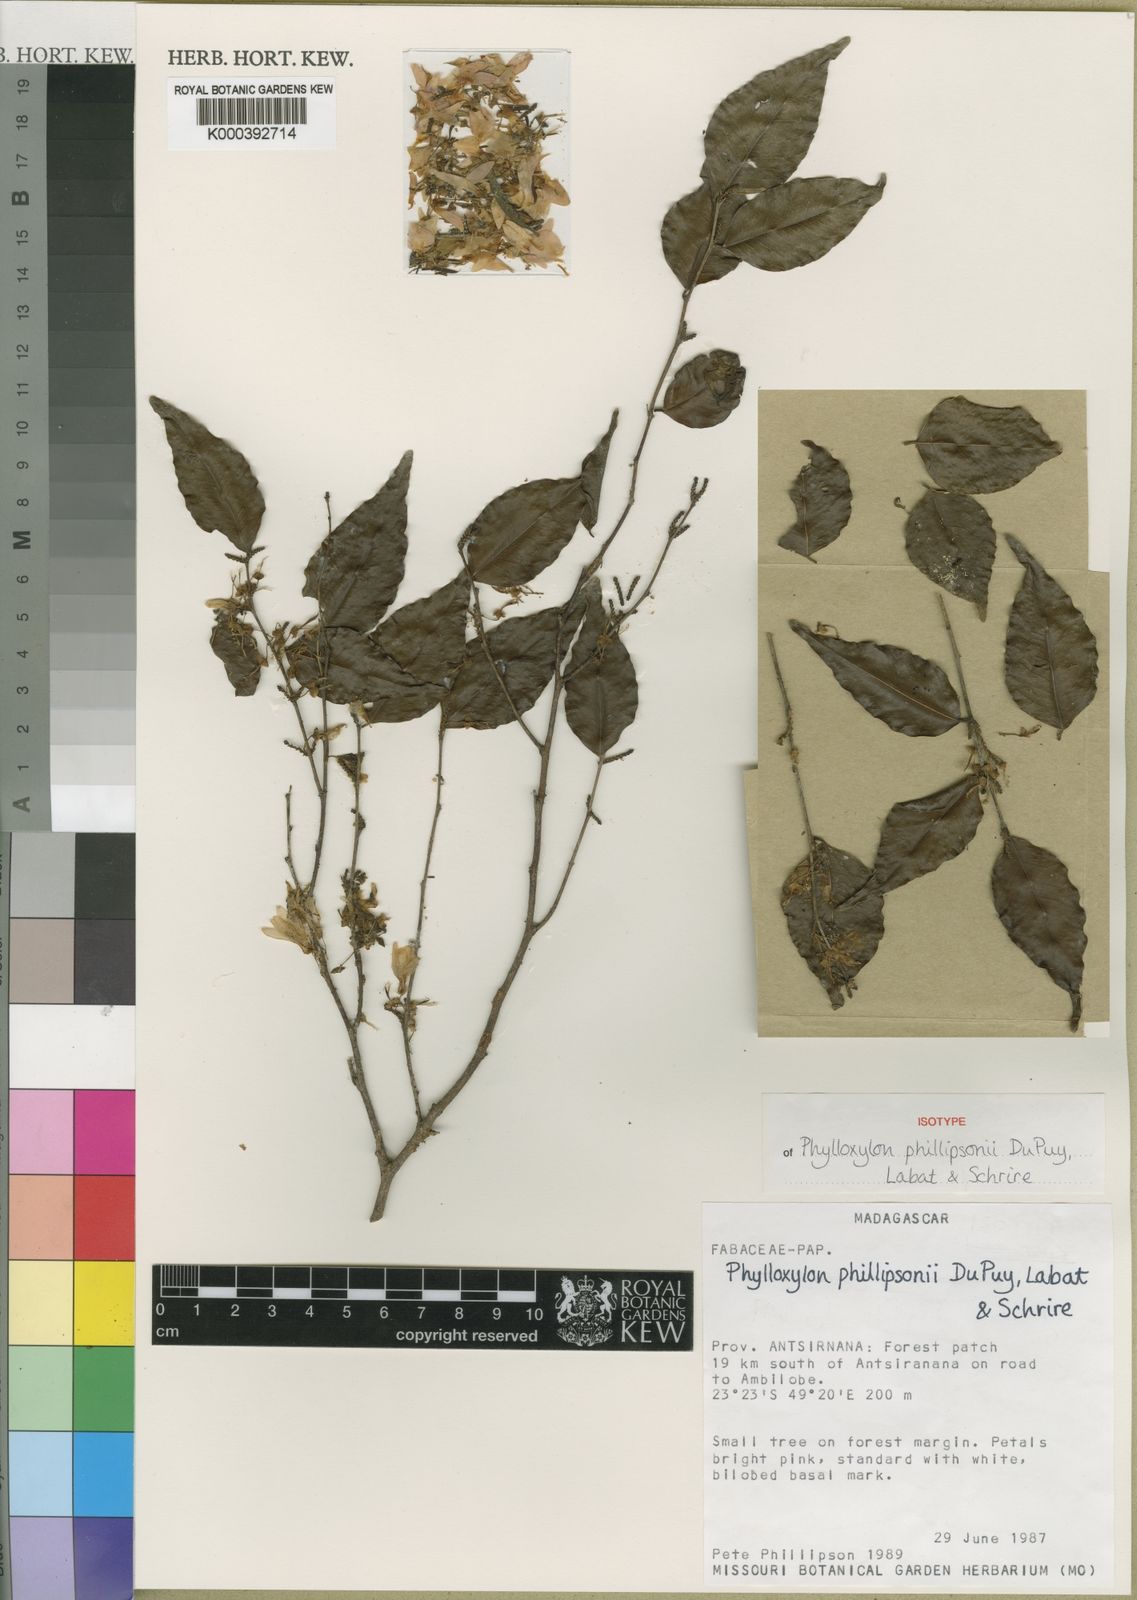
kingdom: Plantae
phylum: Tracheophyta
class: Magnoliopsida
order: Fabales
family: Fabaceae
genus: Phylloxylon
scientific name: Phylloxylon phillipsonii
